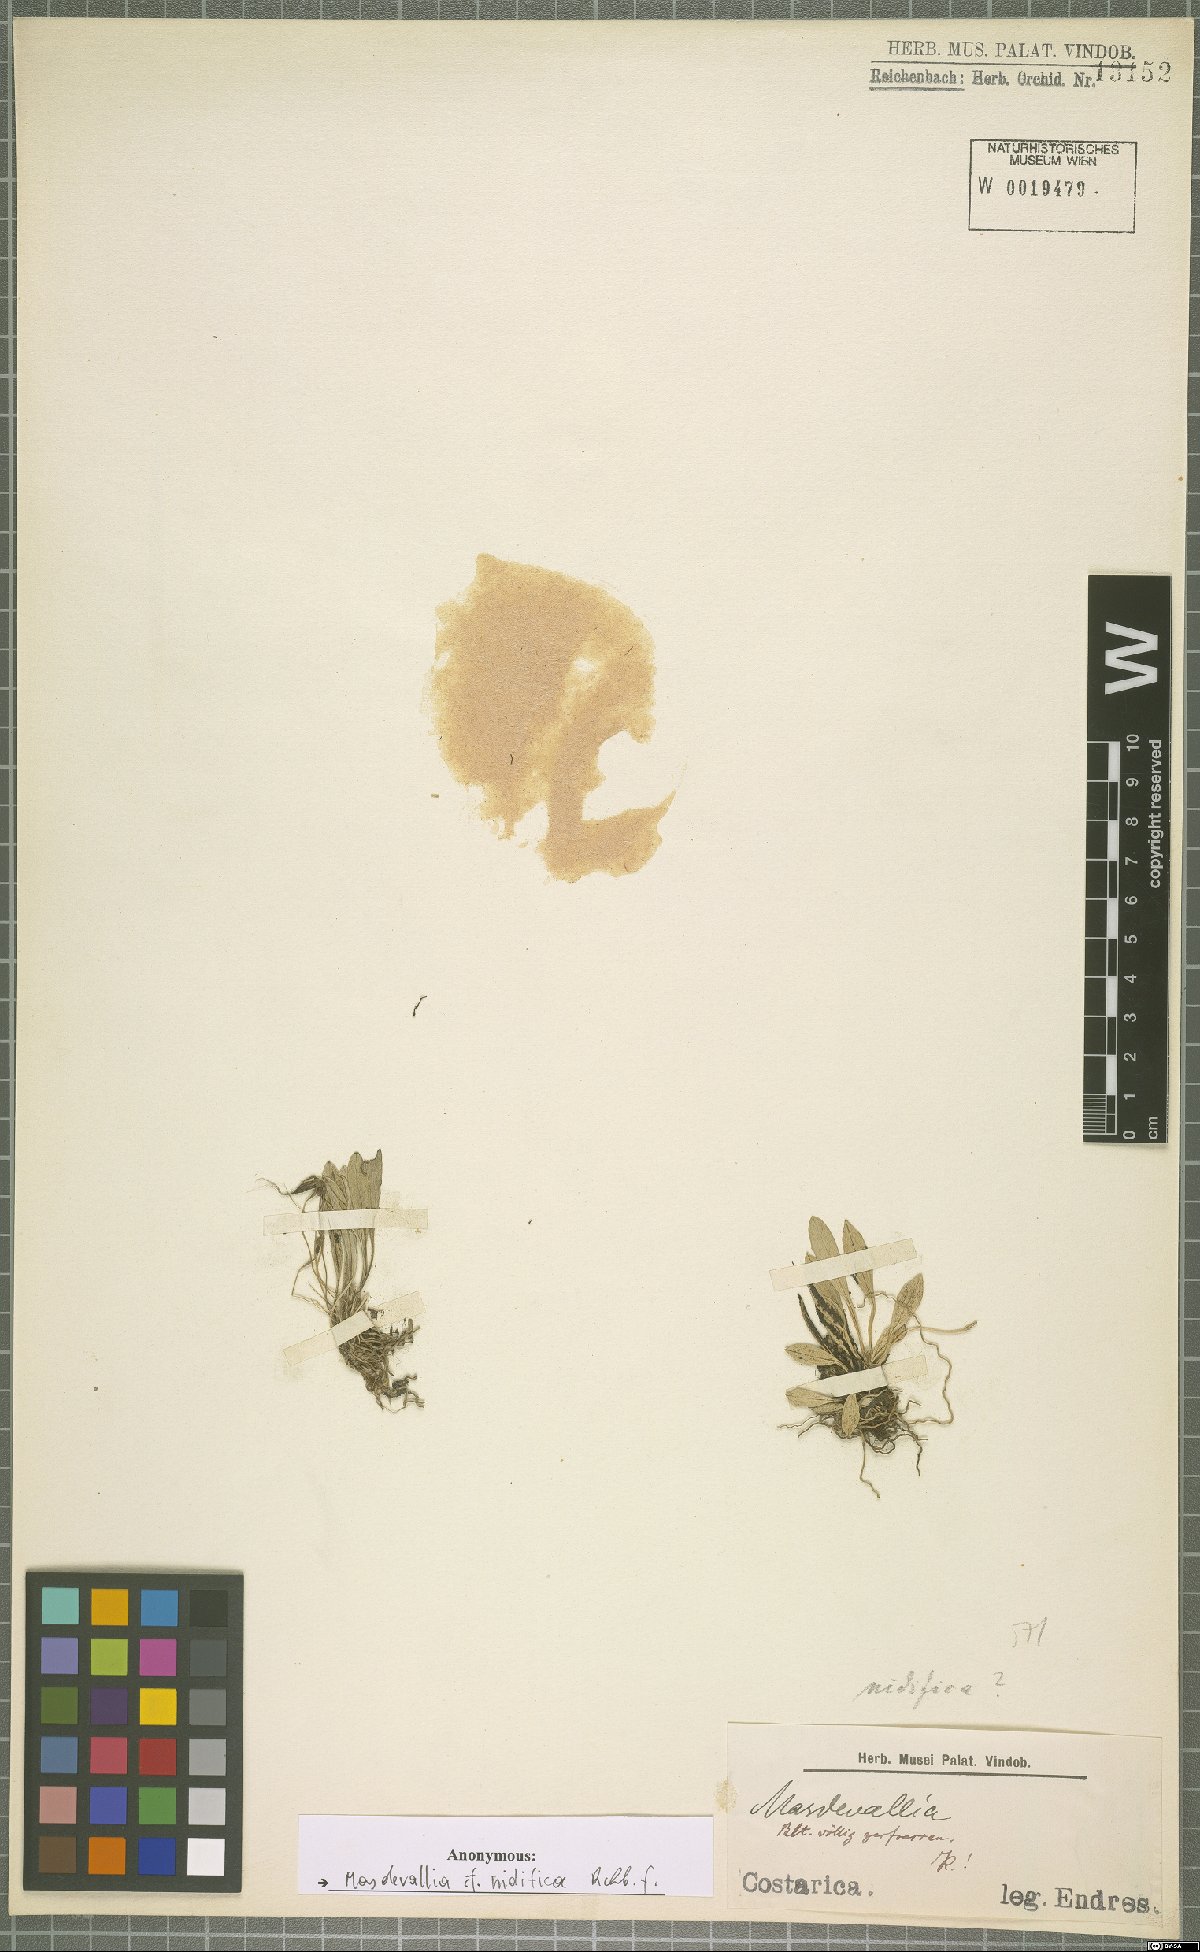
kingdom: Plantae
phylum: Tracheophyta
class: Liliopsida
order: Asparagales
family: Orchidaceae
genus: Masdevallia
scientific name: Masdevallia nidifica
